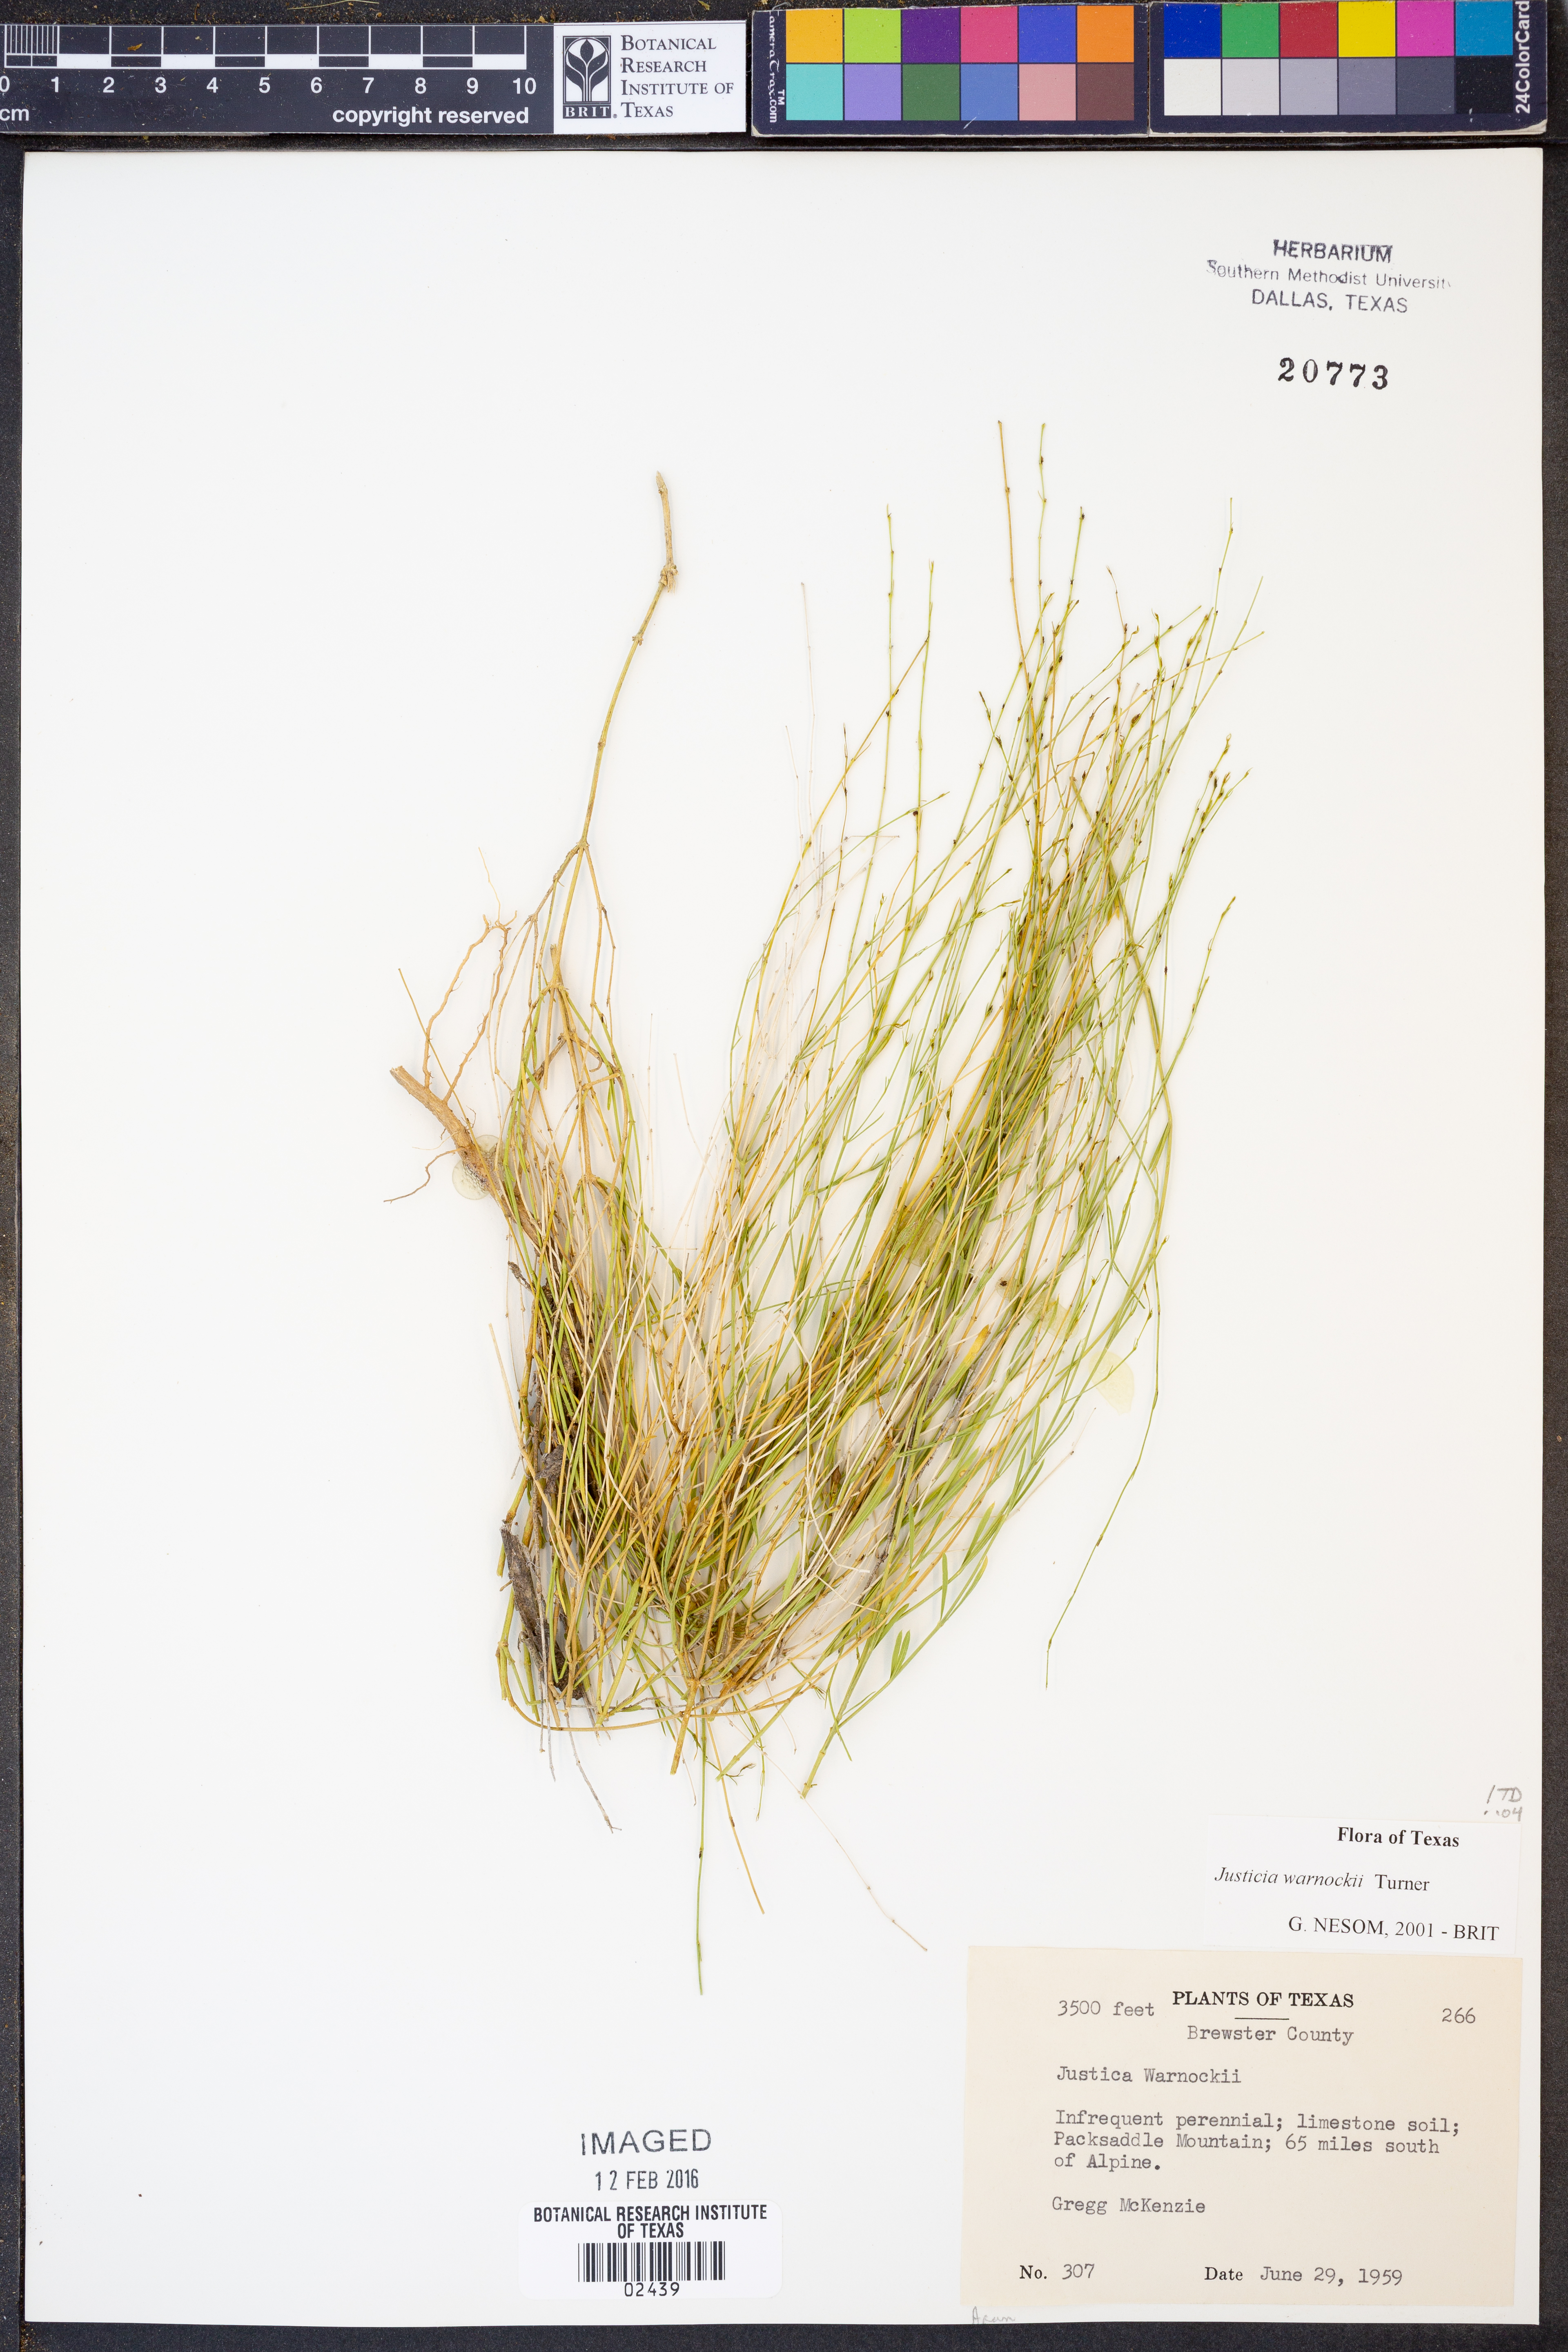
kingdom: Plantae
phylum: Tracheophyta
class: Magnoliopsida
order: Lamiales
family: Acanthaceae
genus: Justicia
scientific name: Justicia warnockii
